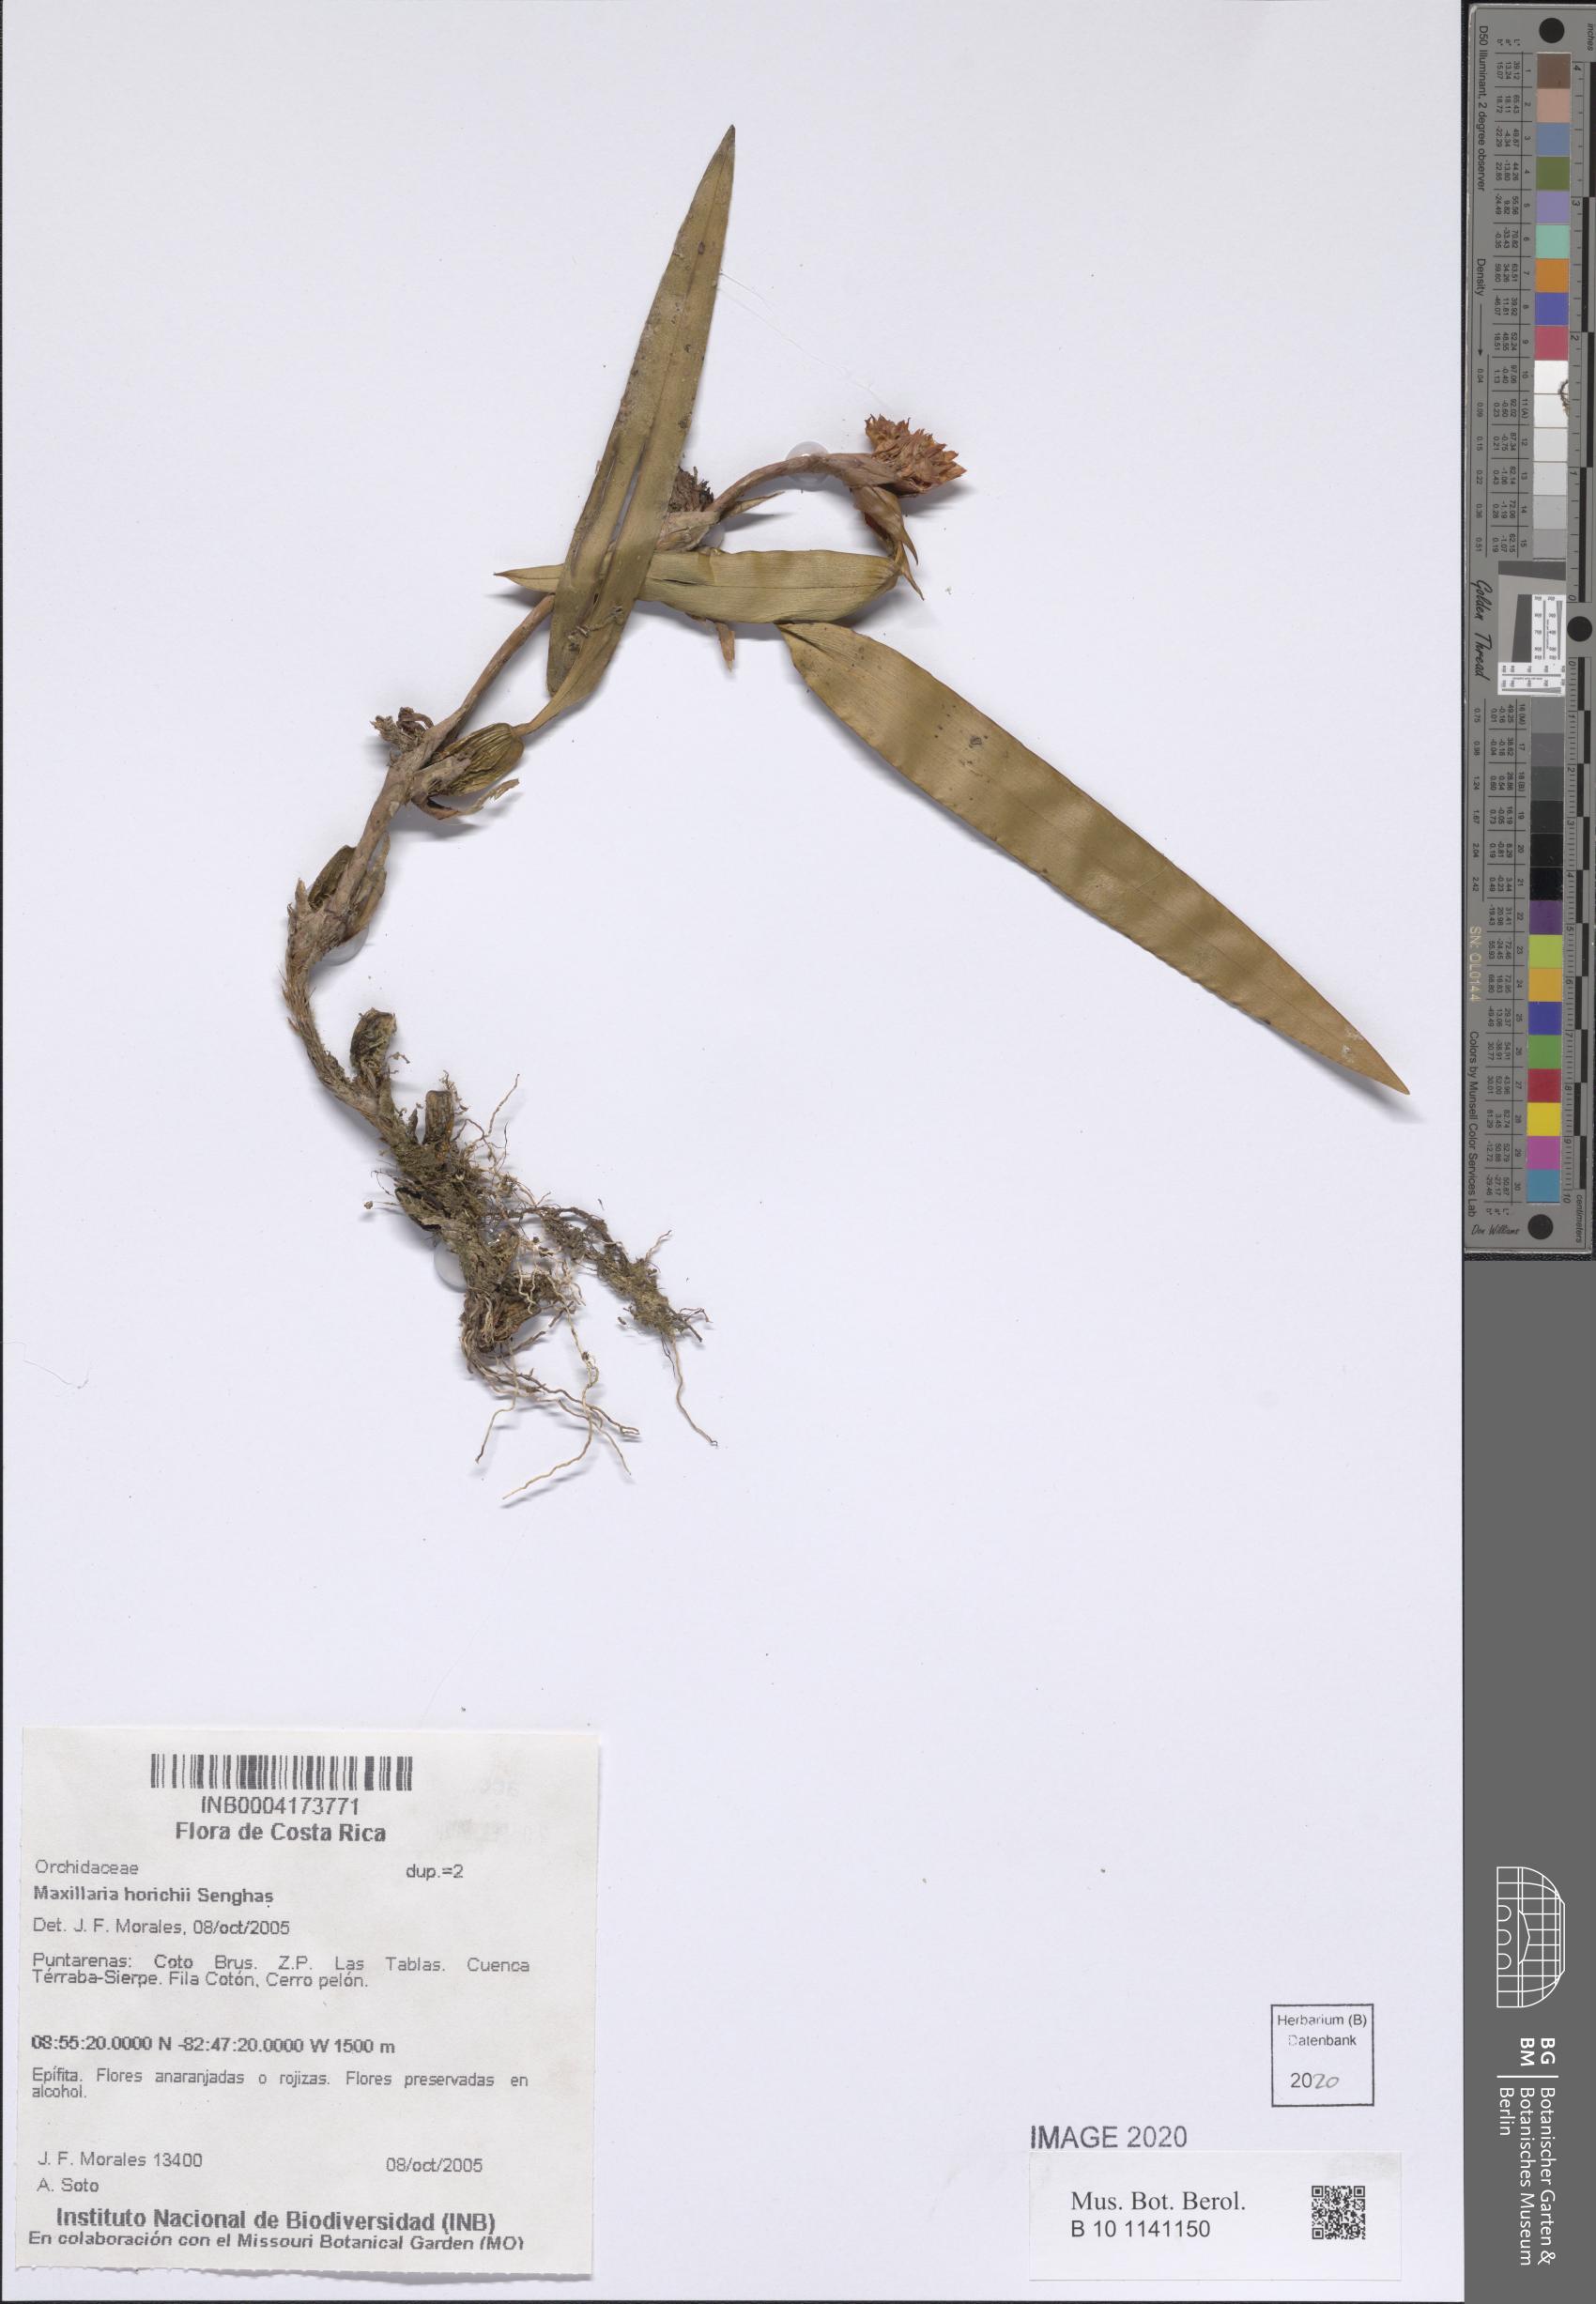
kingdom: Plantae
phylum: Tracheophyta
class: Liliopsida
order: Asparagales
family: Orchidaceae
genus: Maxillaria
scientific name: Maxillaria horichii
